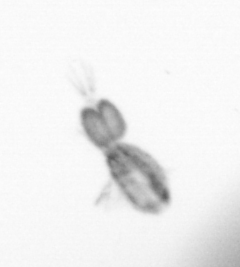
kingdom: Animalia
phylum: Arthropoda
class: Copepoda
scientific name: Copepoda
